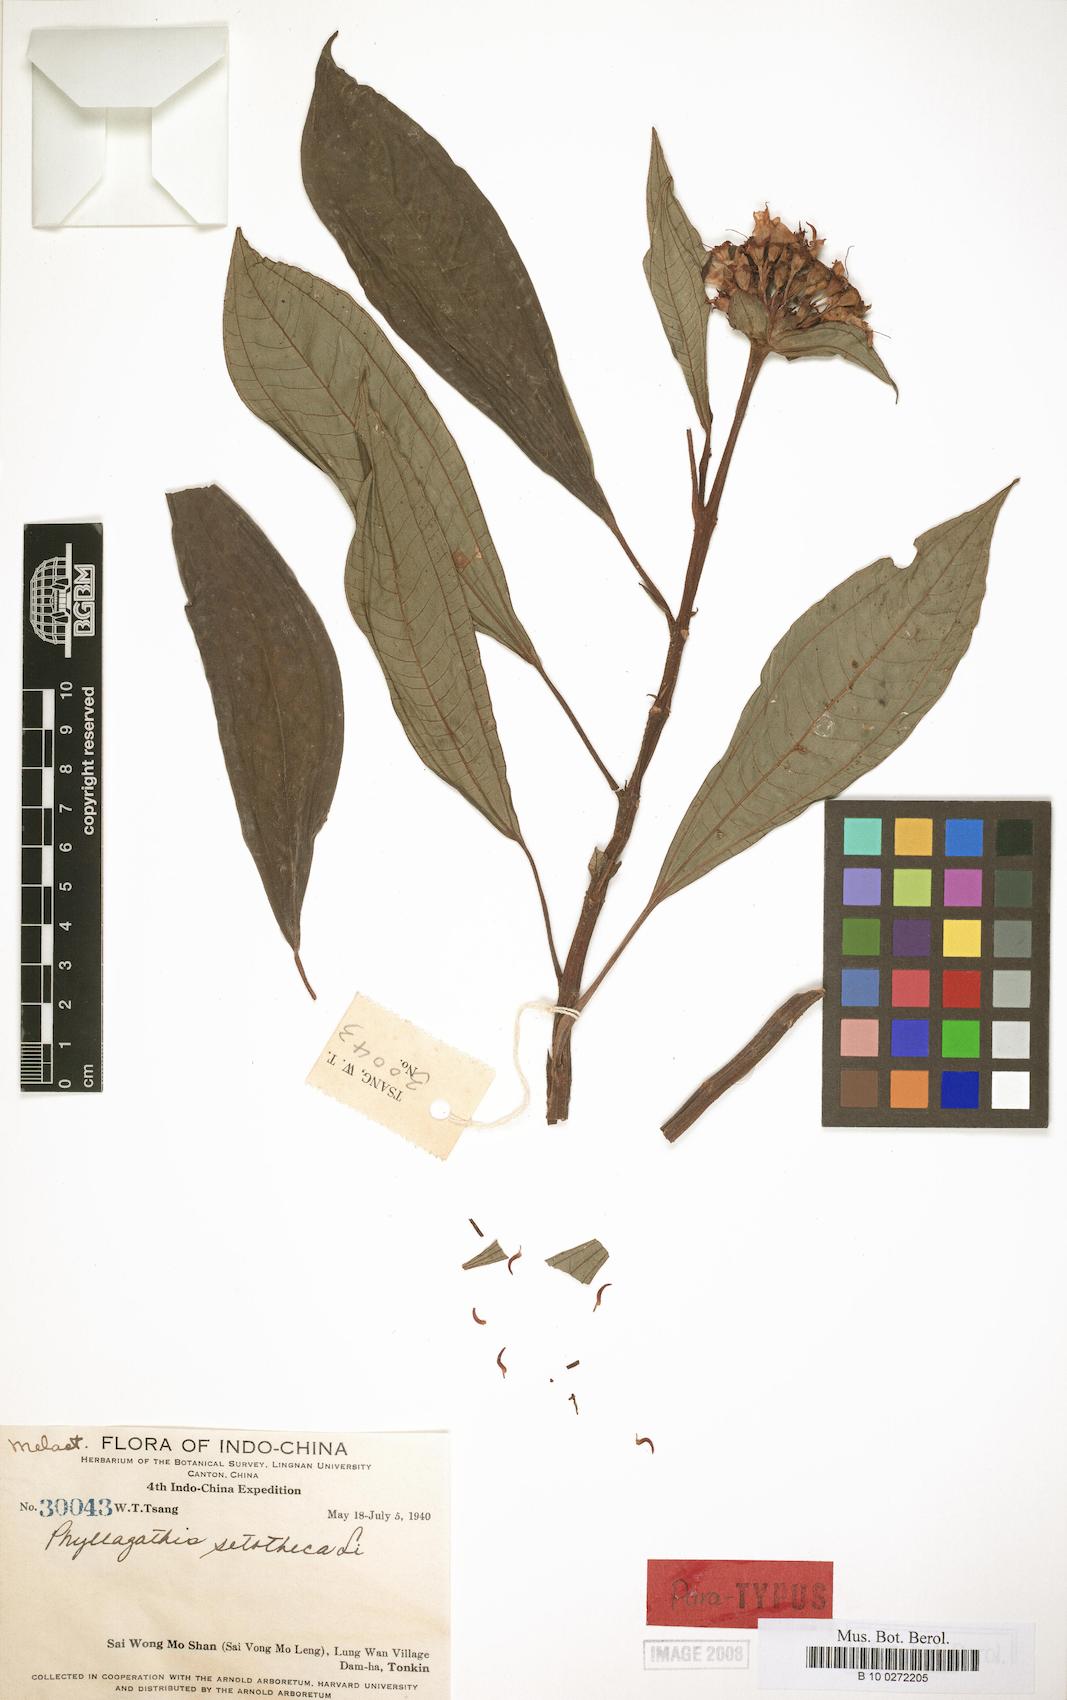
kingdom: Plantae
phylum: Tracheophyta
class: Magnoliopsida
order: Myrtales
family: Melastomataceae
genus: Phyllagathis
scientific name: Phyllagathis setotheca
